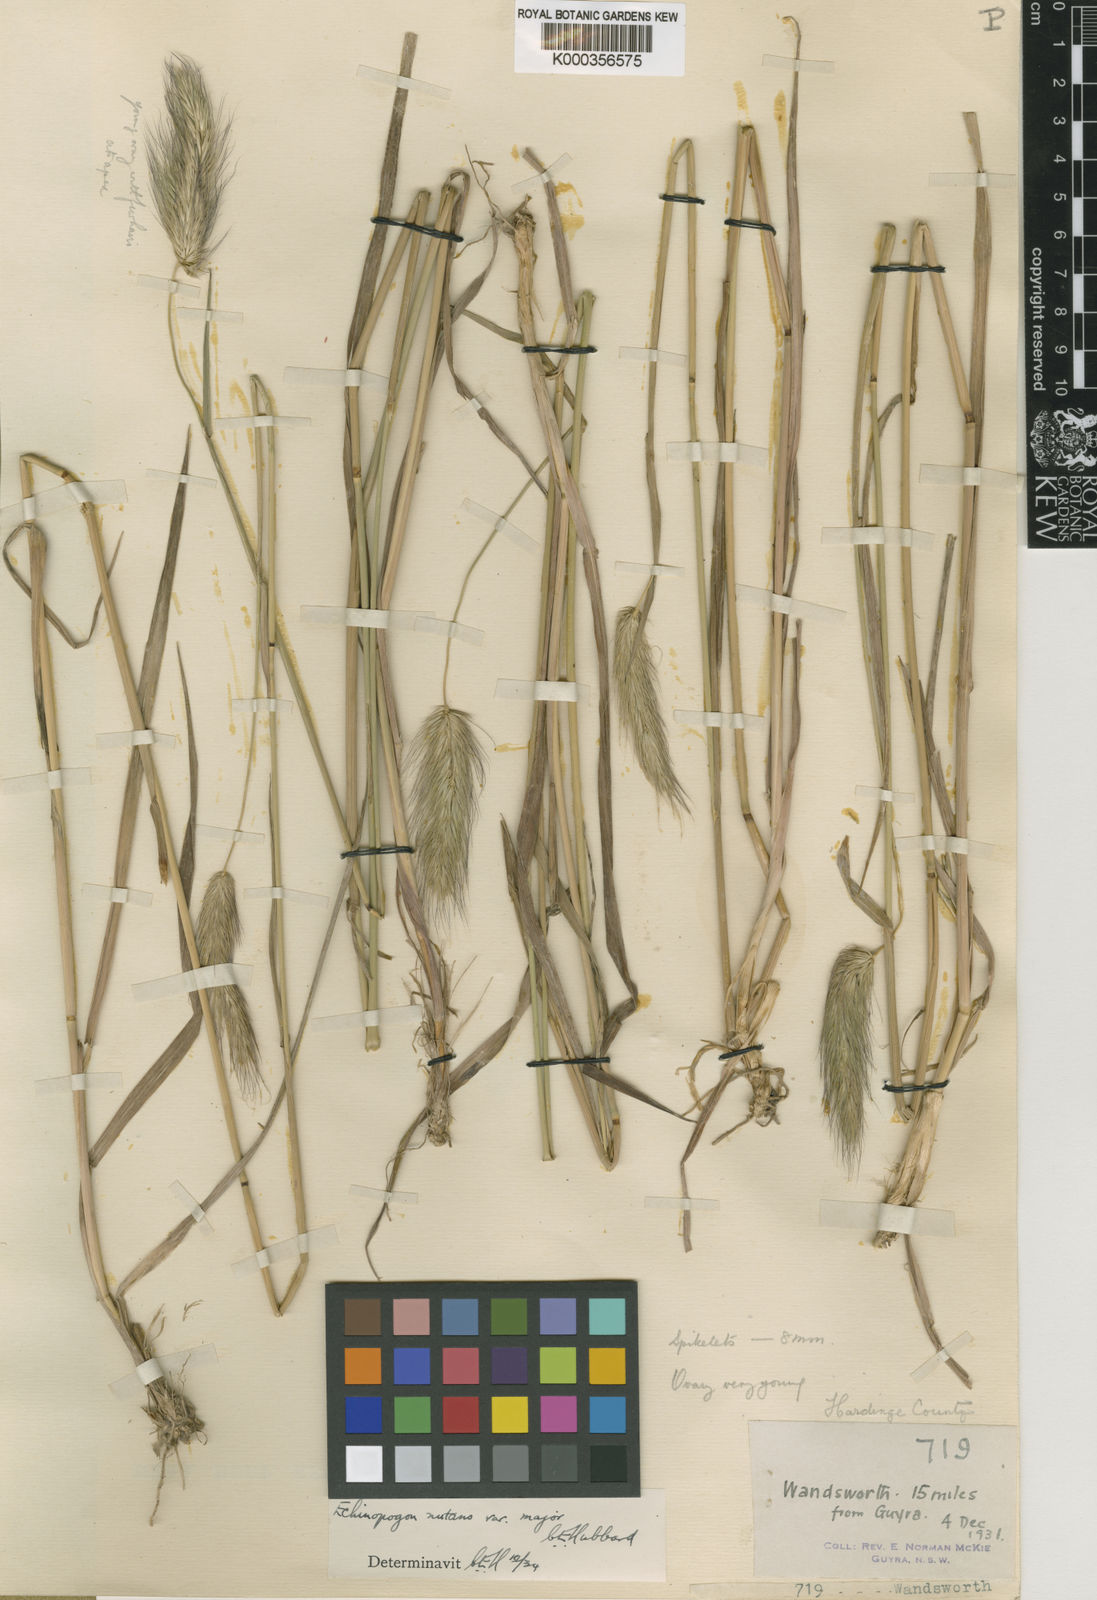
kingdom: Plantae
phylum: Tracheophyta
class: Liliopsida
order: Poales
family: Poaceae
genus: Echinopogon
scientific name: Echinopogon nutans
